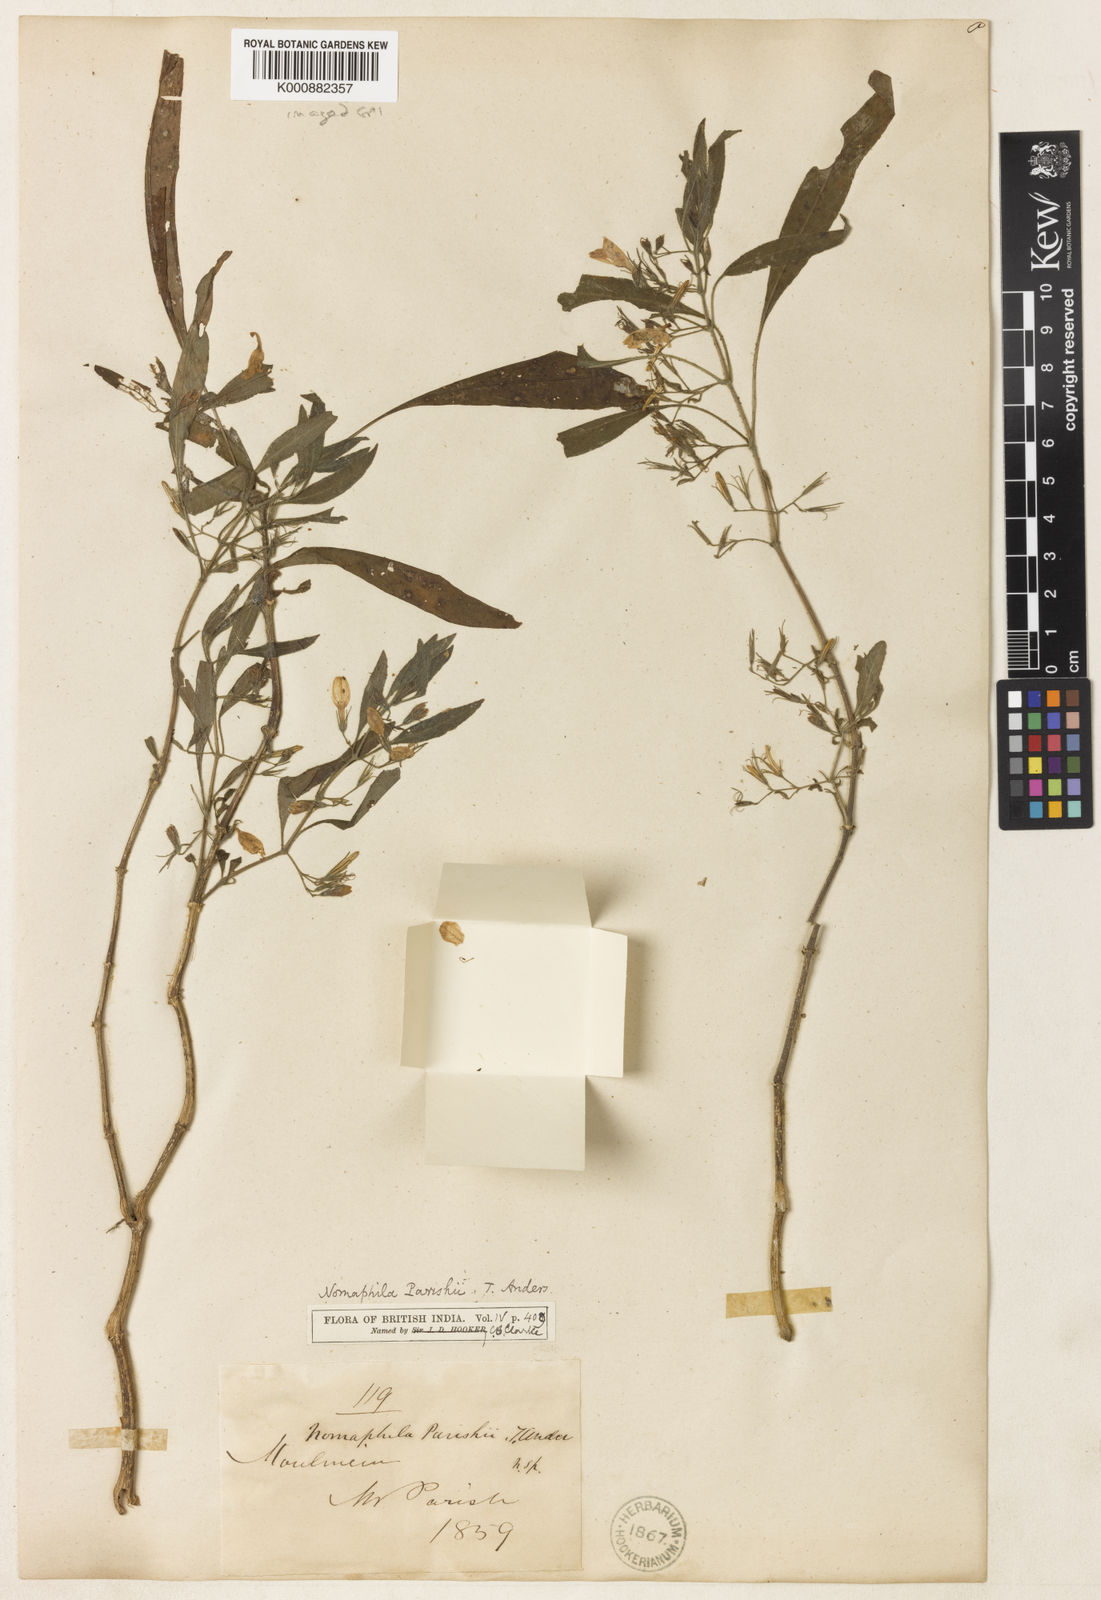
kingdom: Plantae
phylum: Tracheophyta
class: Magnoliopsida
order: Lamiales
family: Acanthaceae
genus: Hygrophila
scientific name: Hygrophila corymbosa
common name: Starhorn
